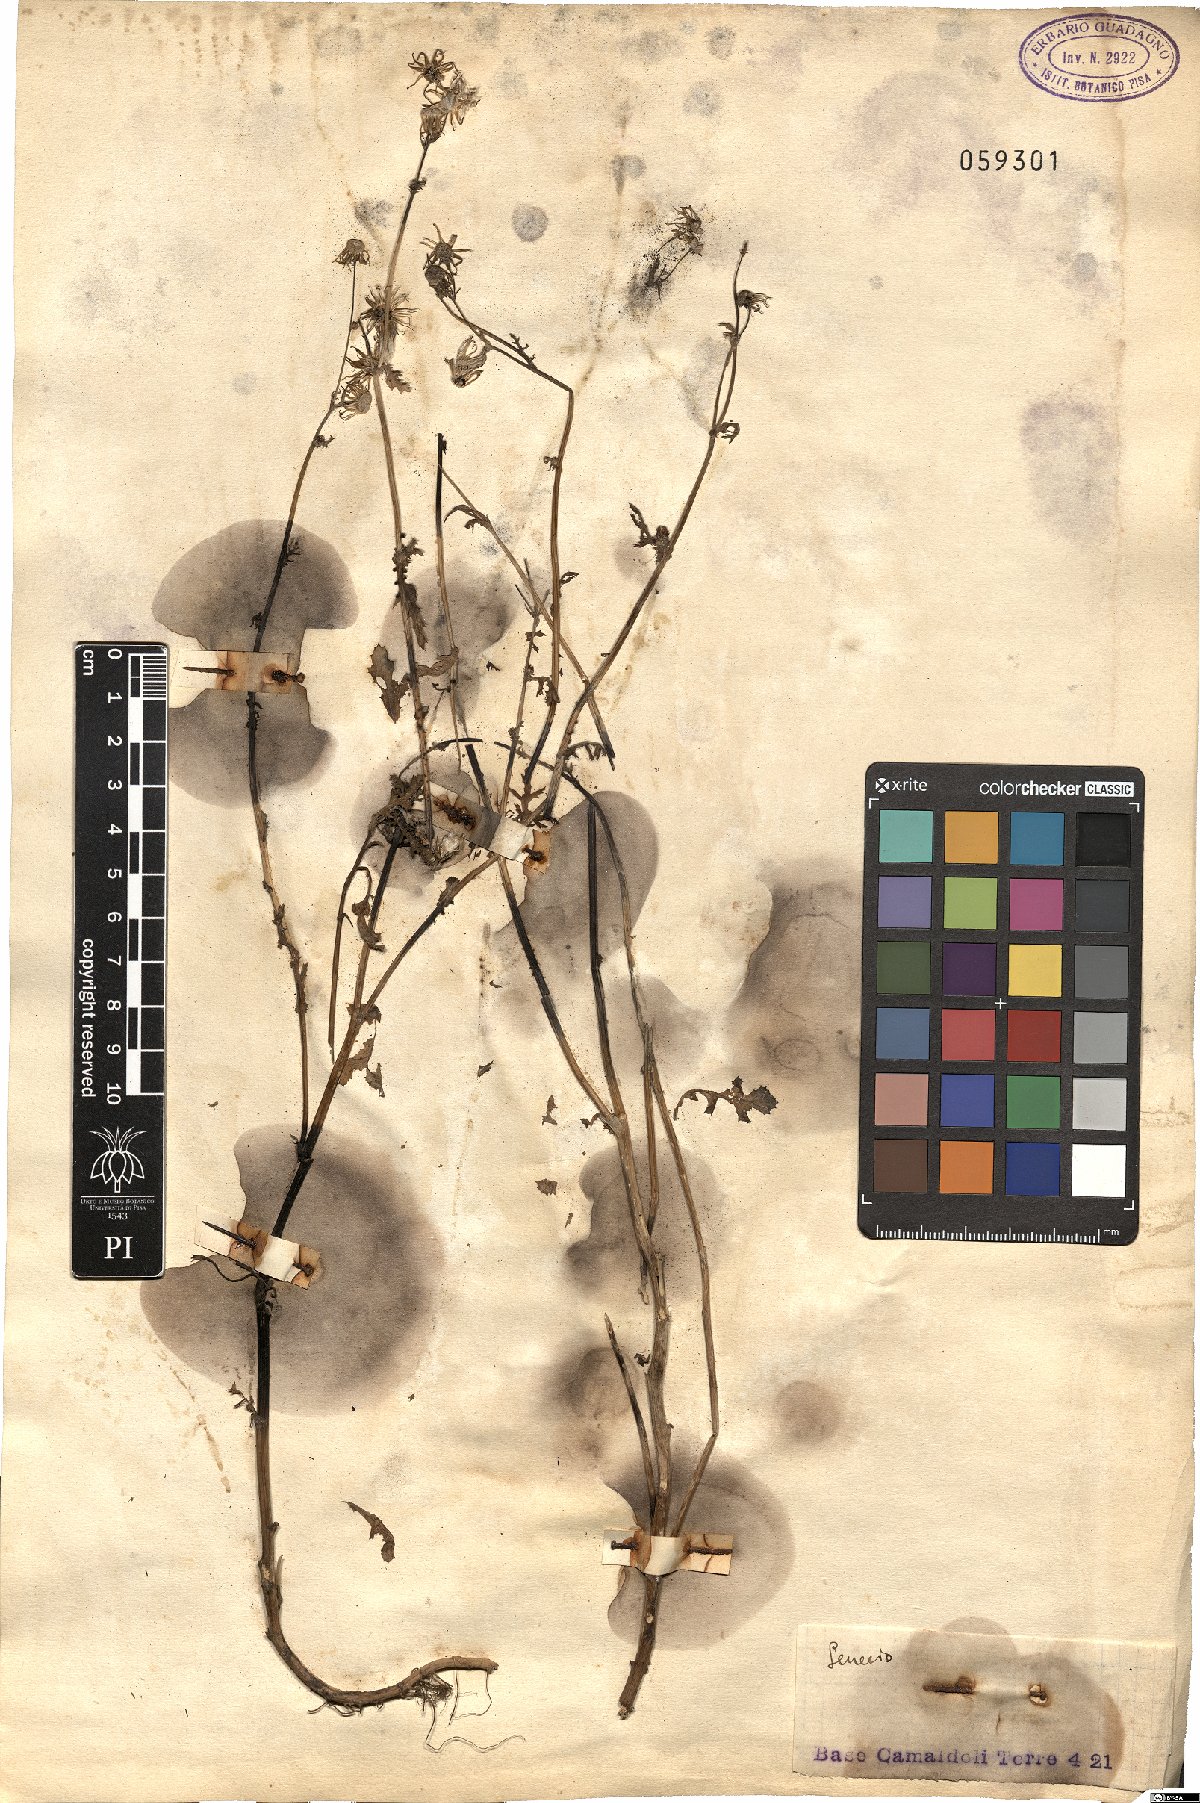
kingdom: Plantae
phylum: Tracheophyta
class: Magnoliopsida
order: Asterales
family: Asteraceae
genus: Senecio
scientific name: Senecio
